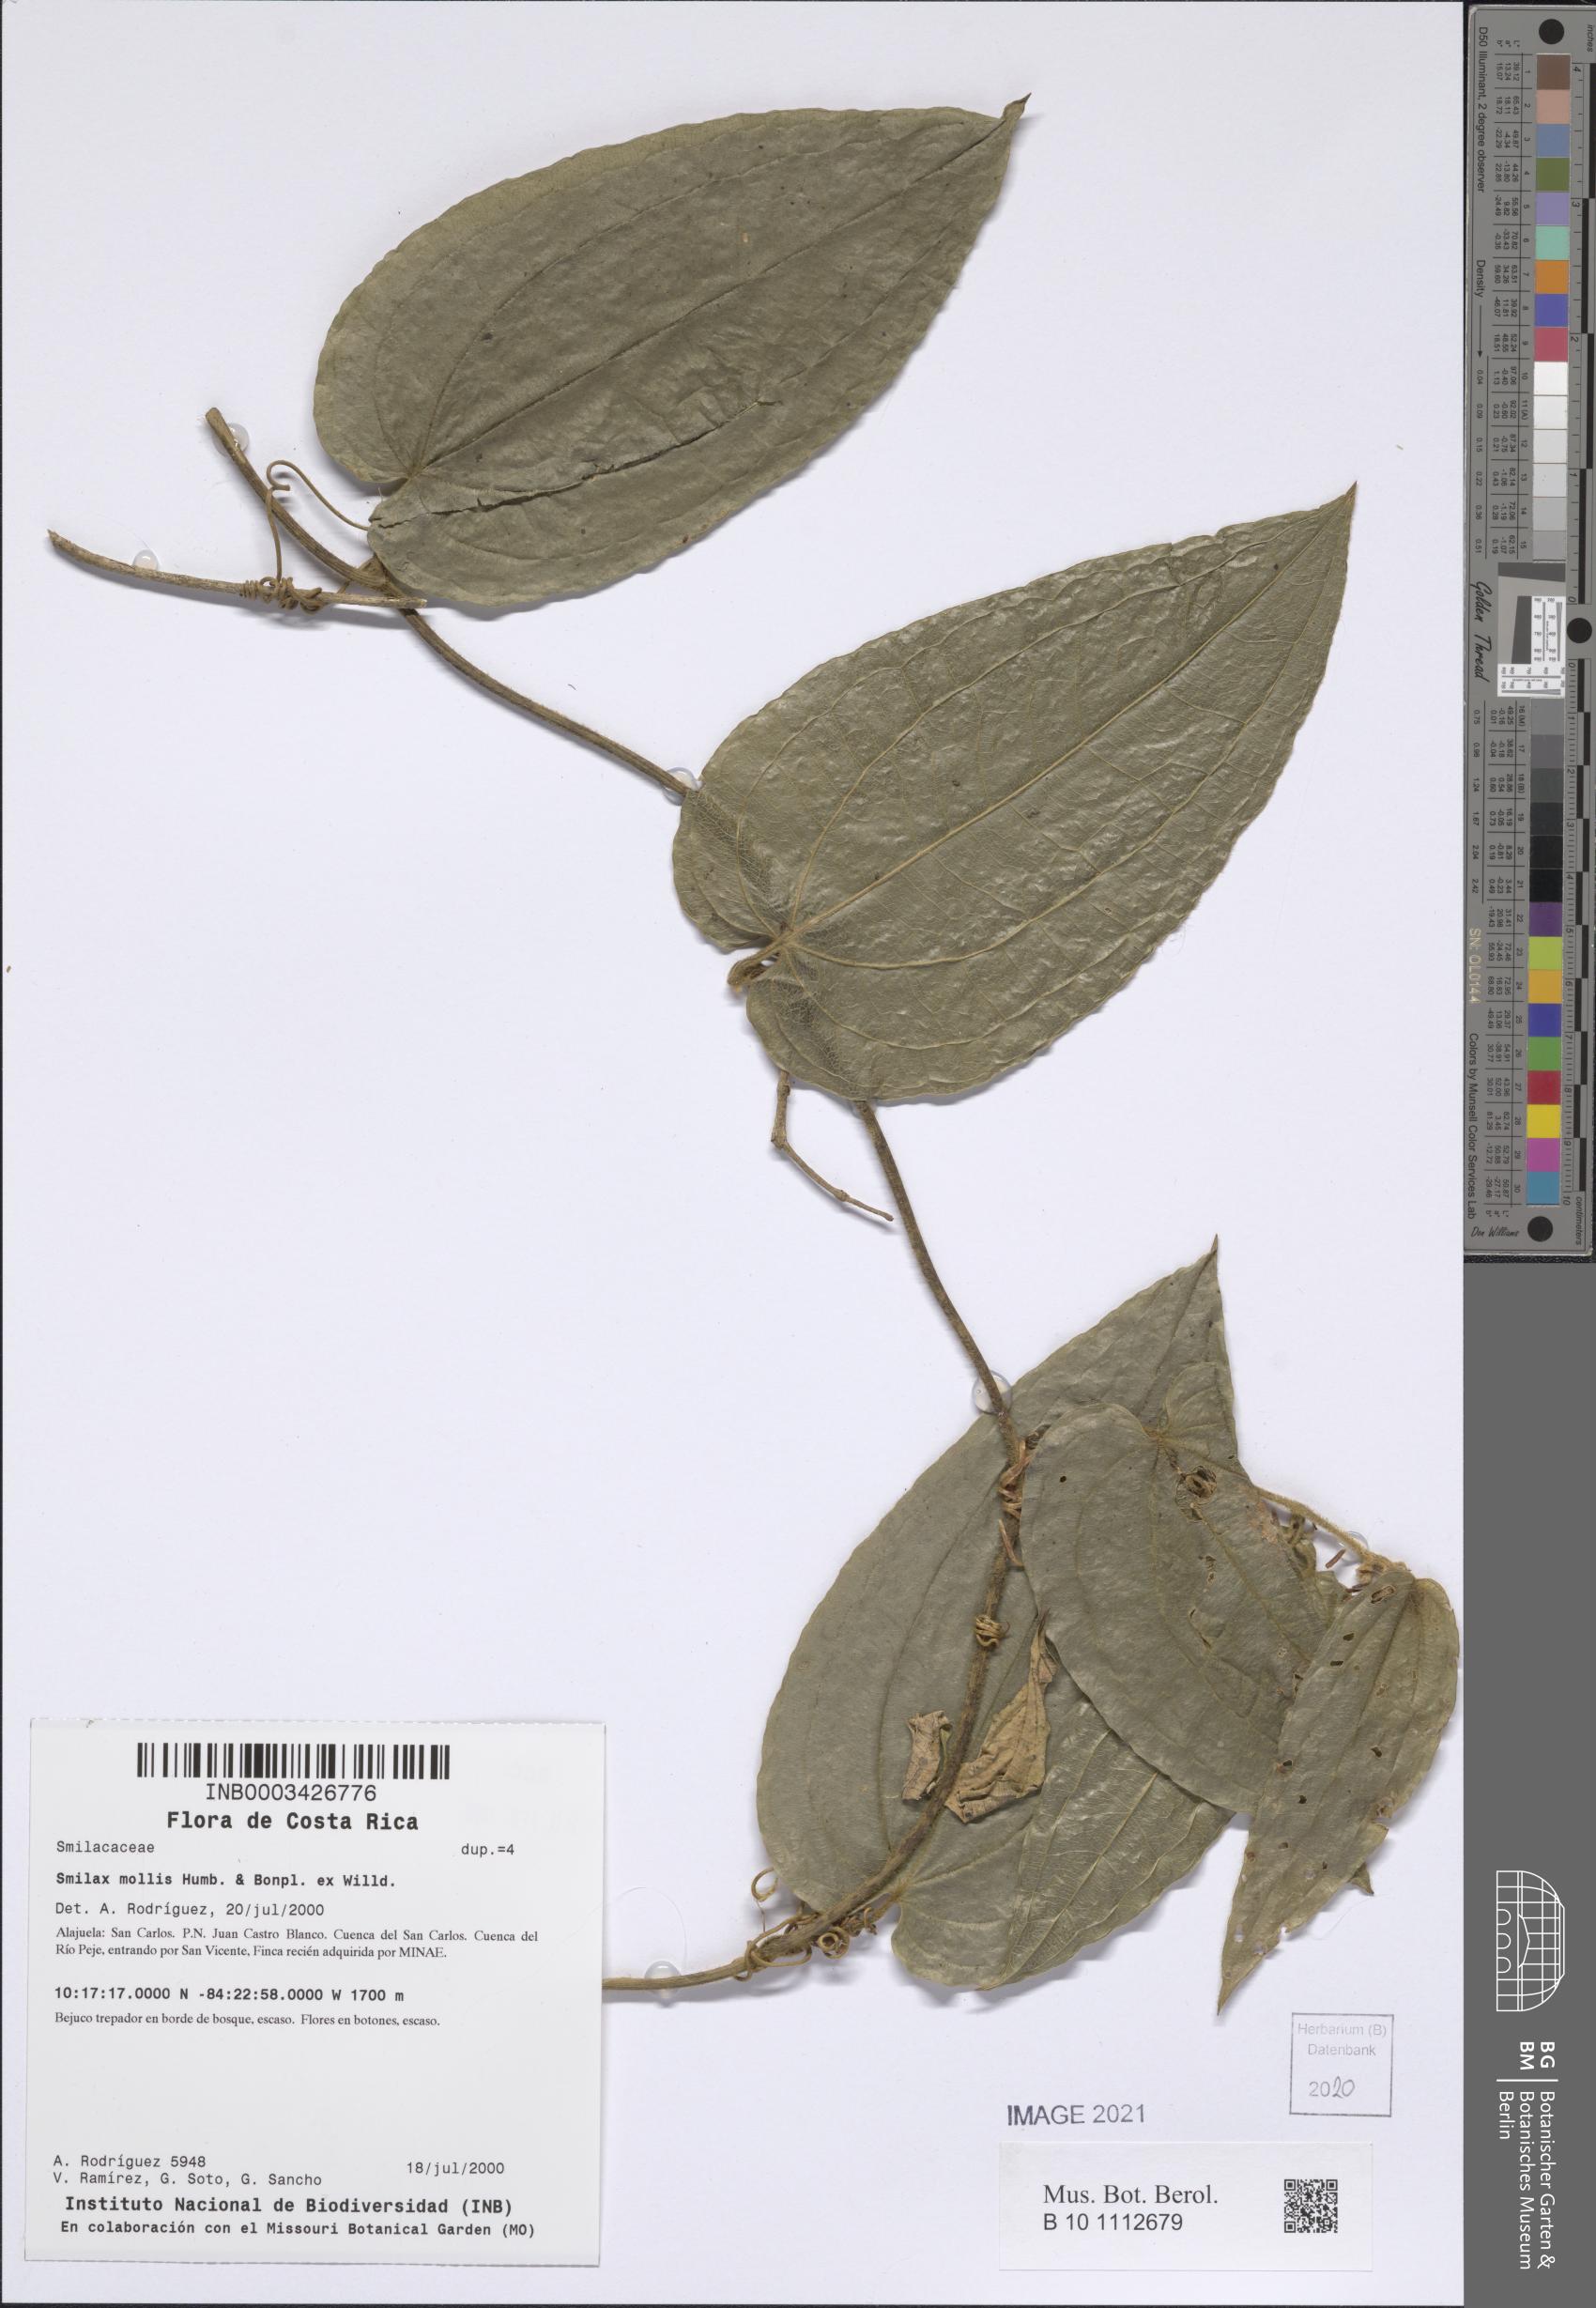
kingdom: Plantae
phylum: Tracheophyta
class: Liliopsida
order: Liliales
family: Smilacaceae
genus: Smilax
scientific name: Smilax mollis
